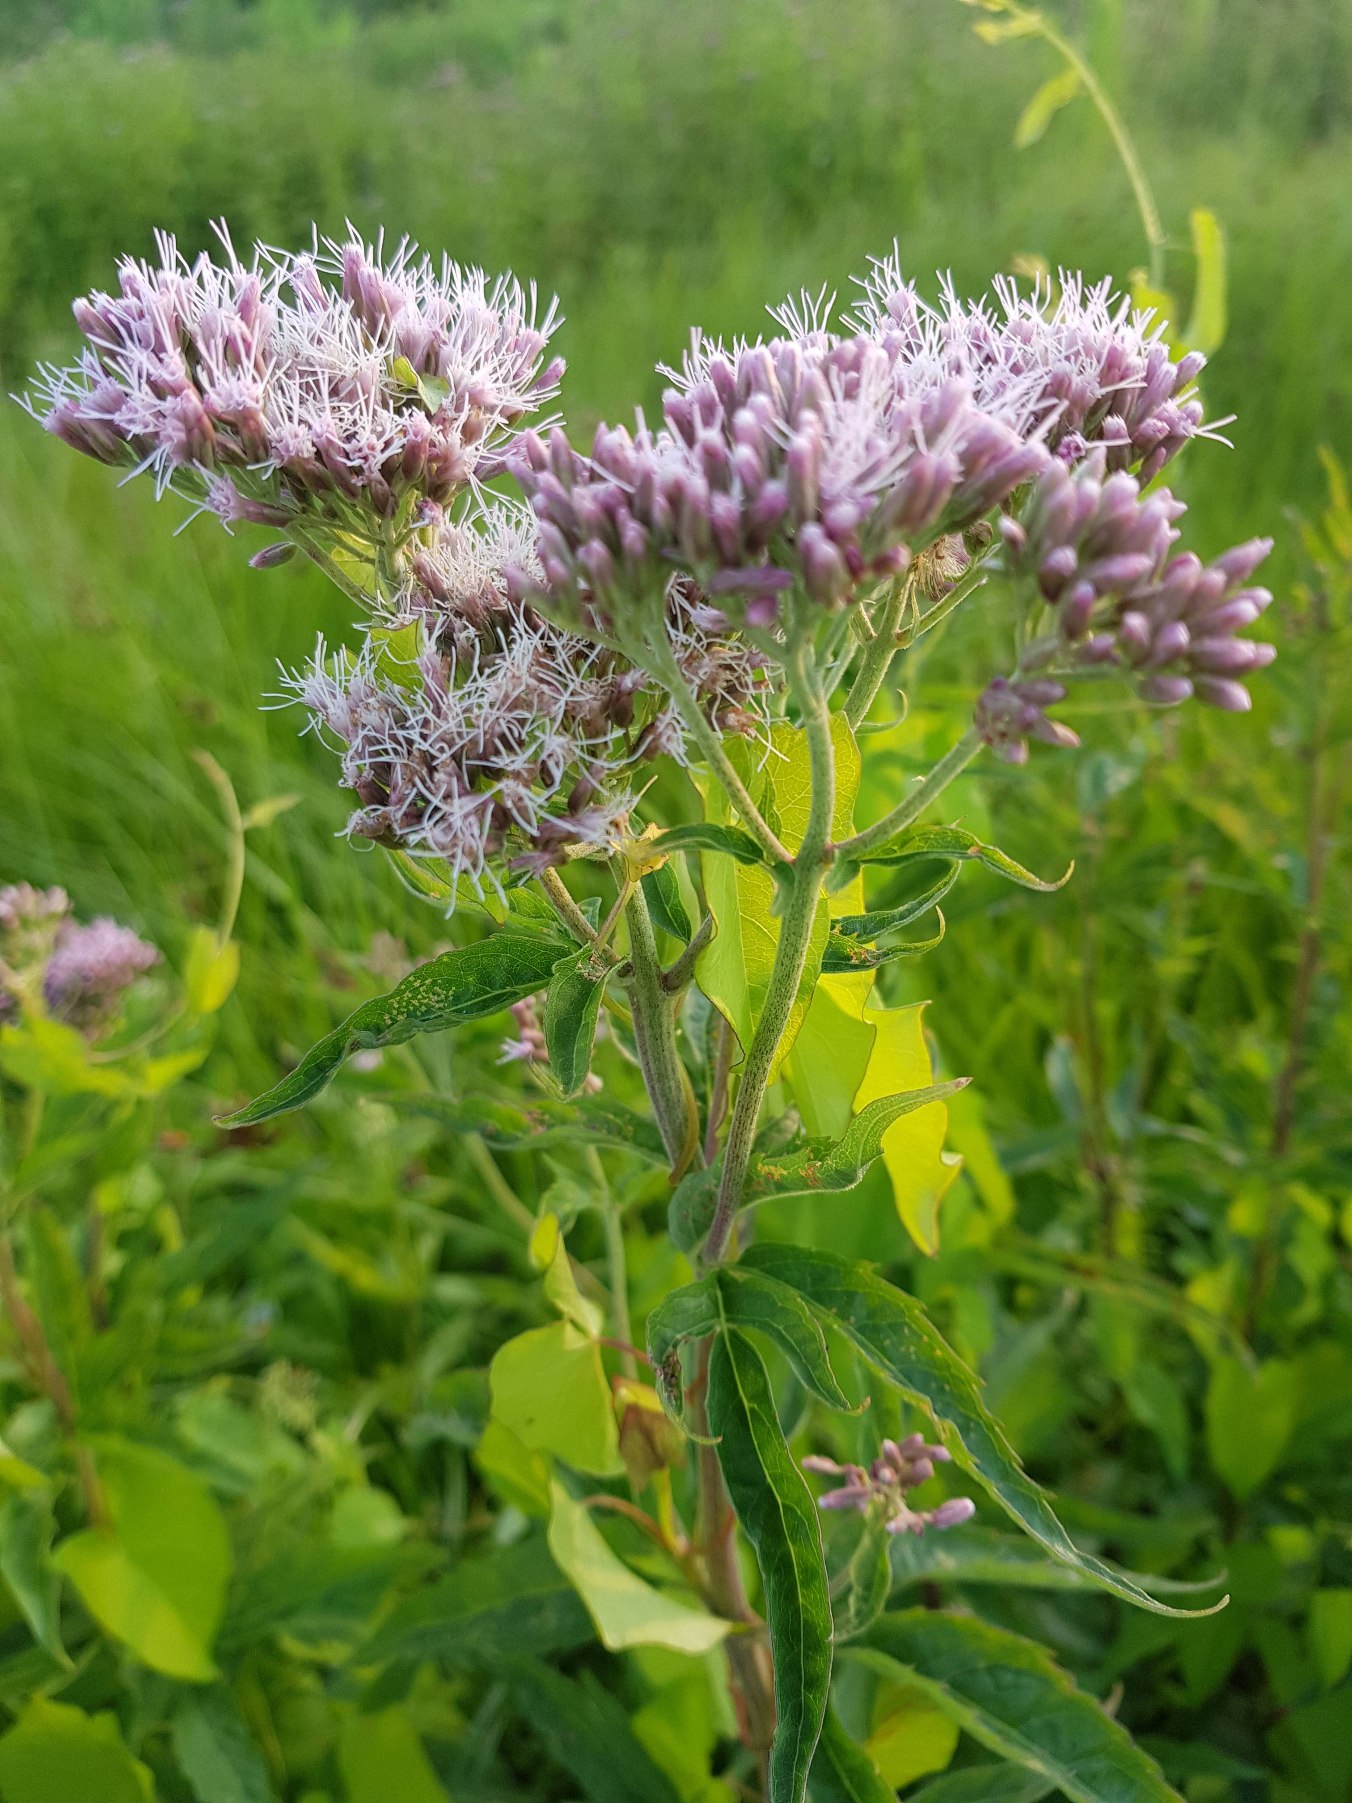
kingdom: Plantae
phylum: Tracheophyta
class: Magnoliopsida
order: Asterales
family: Asteraceae
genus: Eupatorium
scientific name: Eupatorium cannabinum
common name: Hjortetrøst
